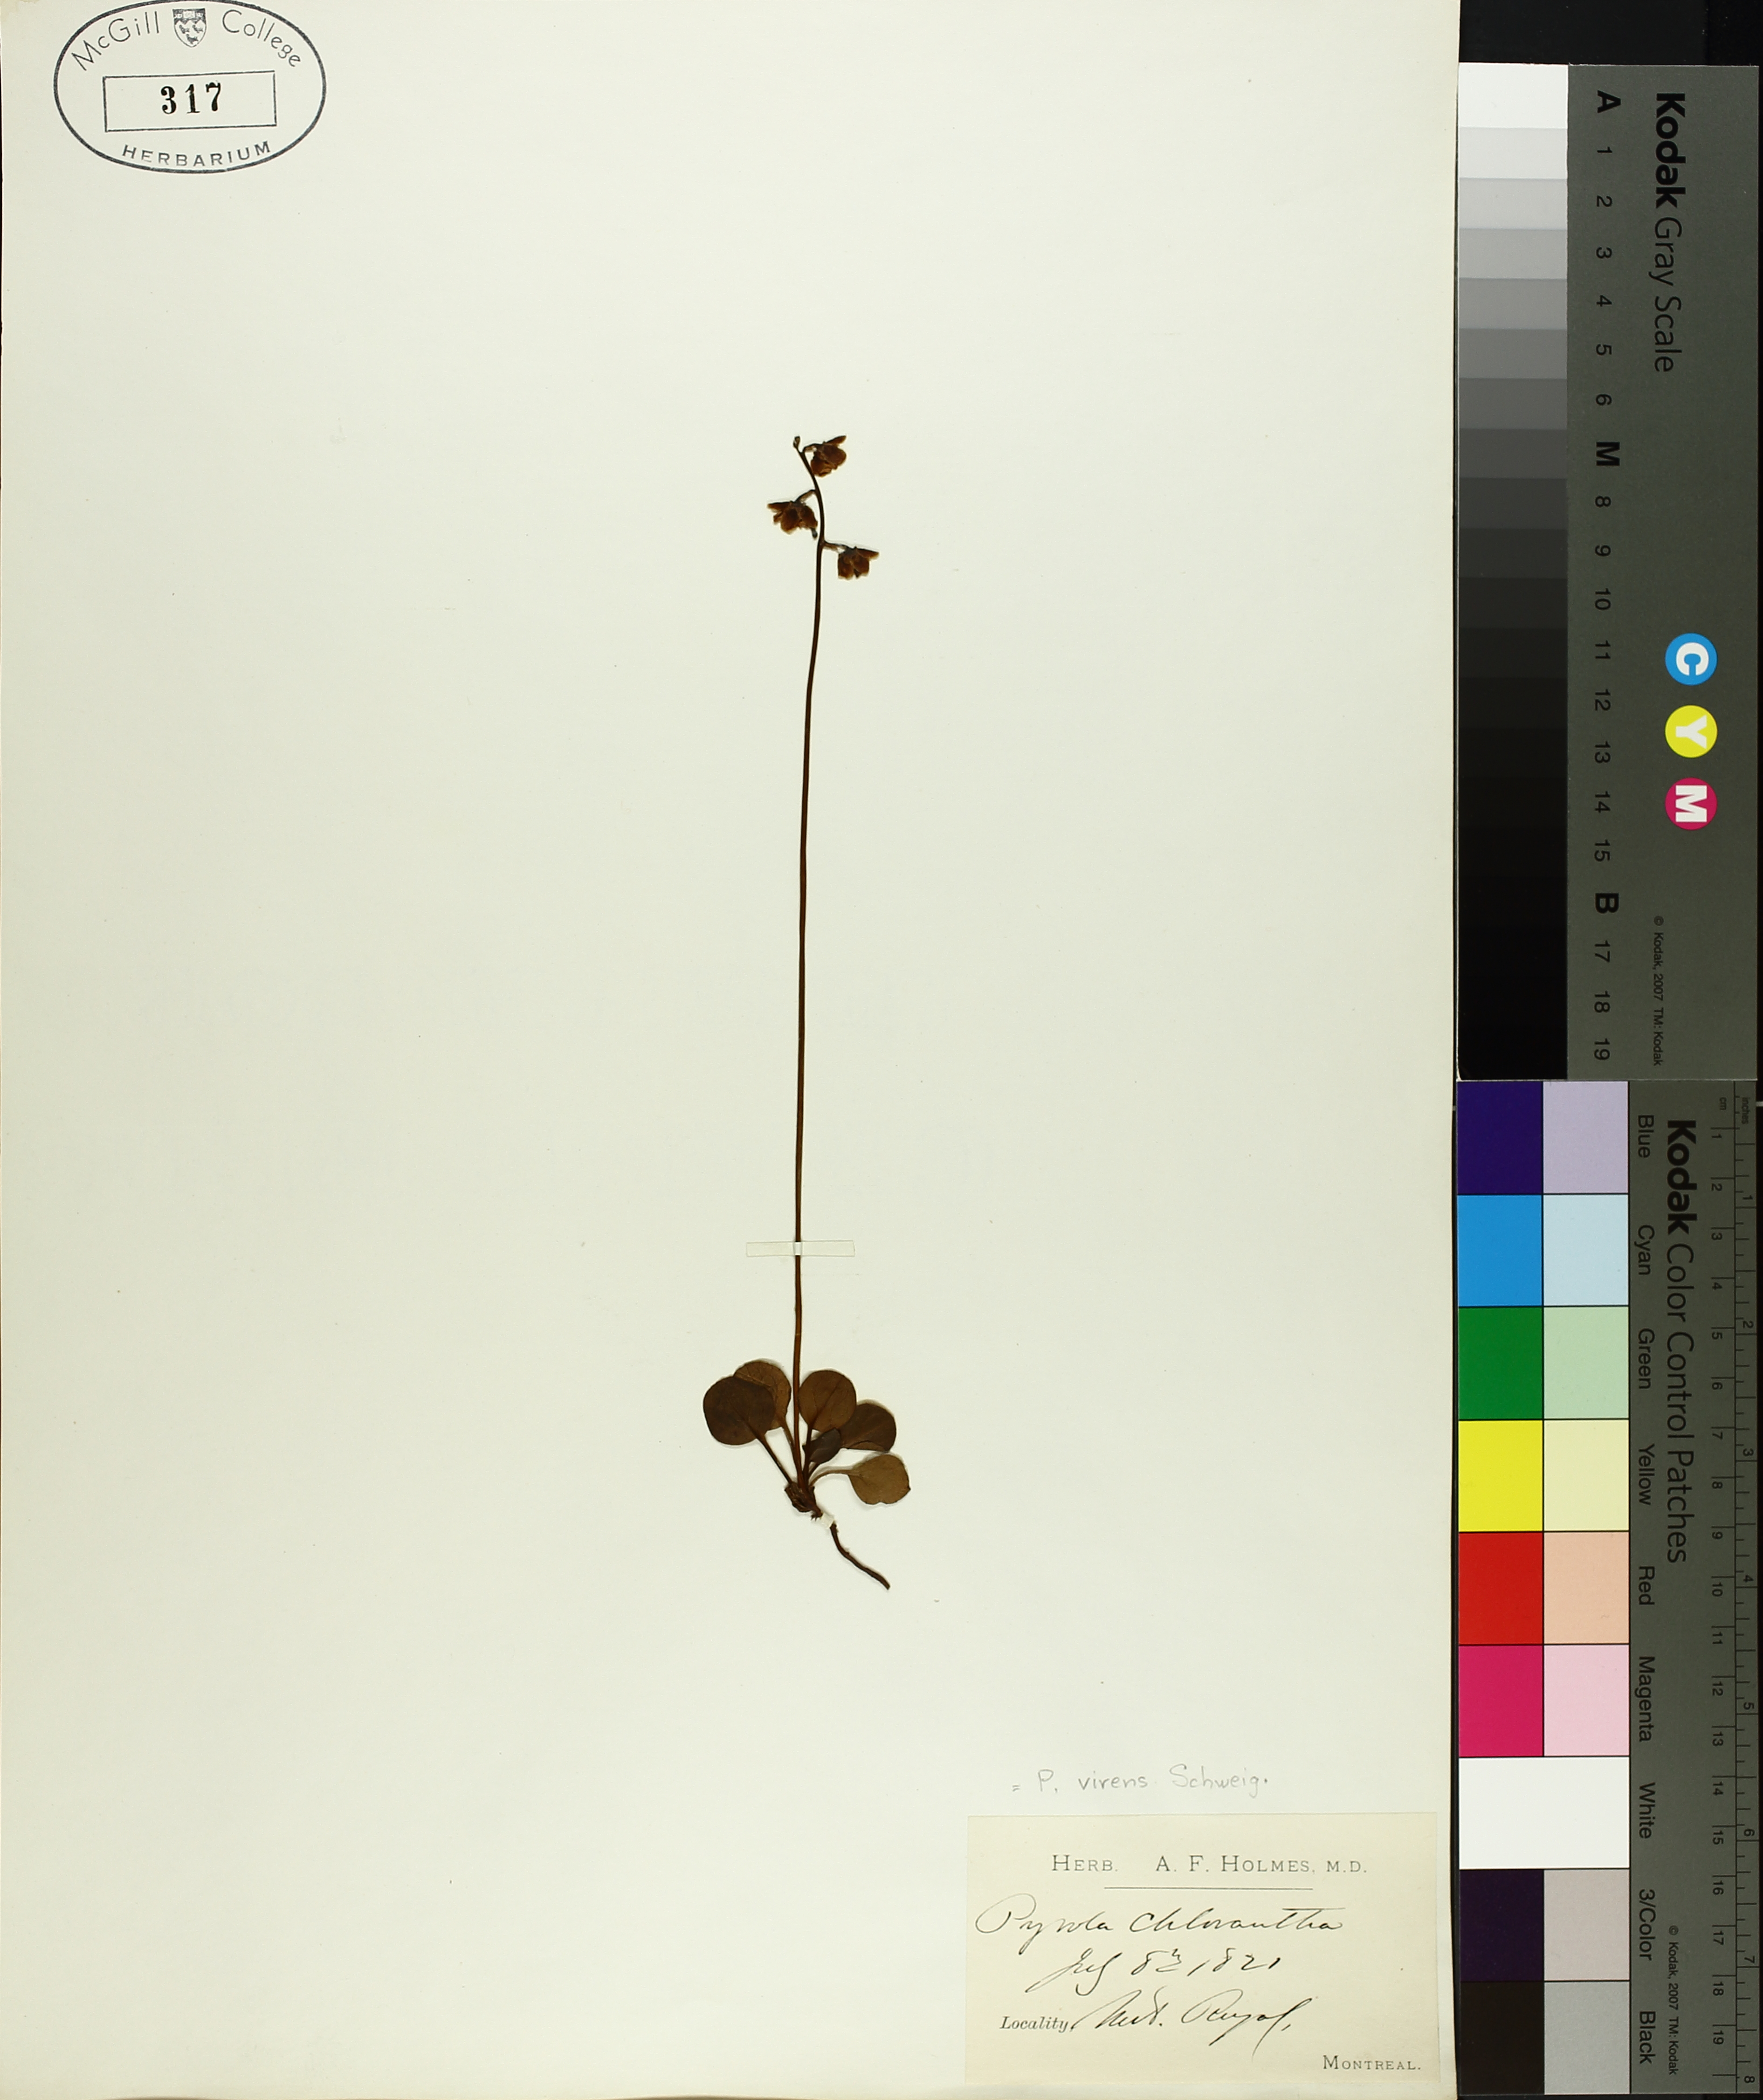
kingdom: Plantae
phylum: Tracheophyta
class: Magnoliopsida
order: Ericales
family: Ericaceae
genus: Pyrola
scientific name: Pyrola chlorantha
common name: Green wintergreen
